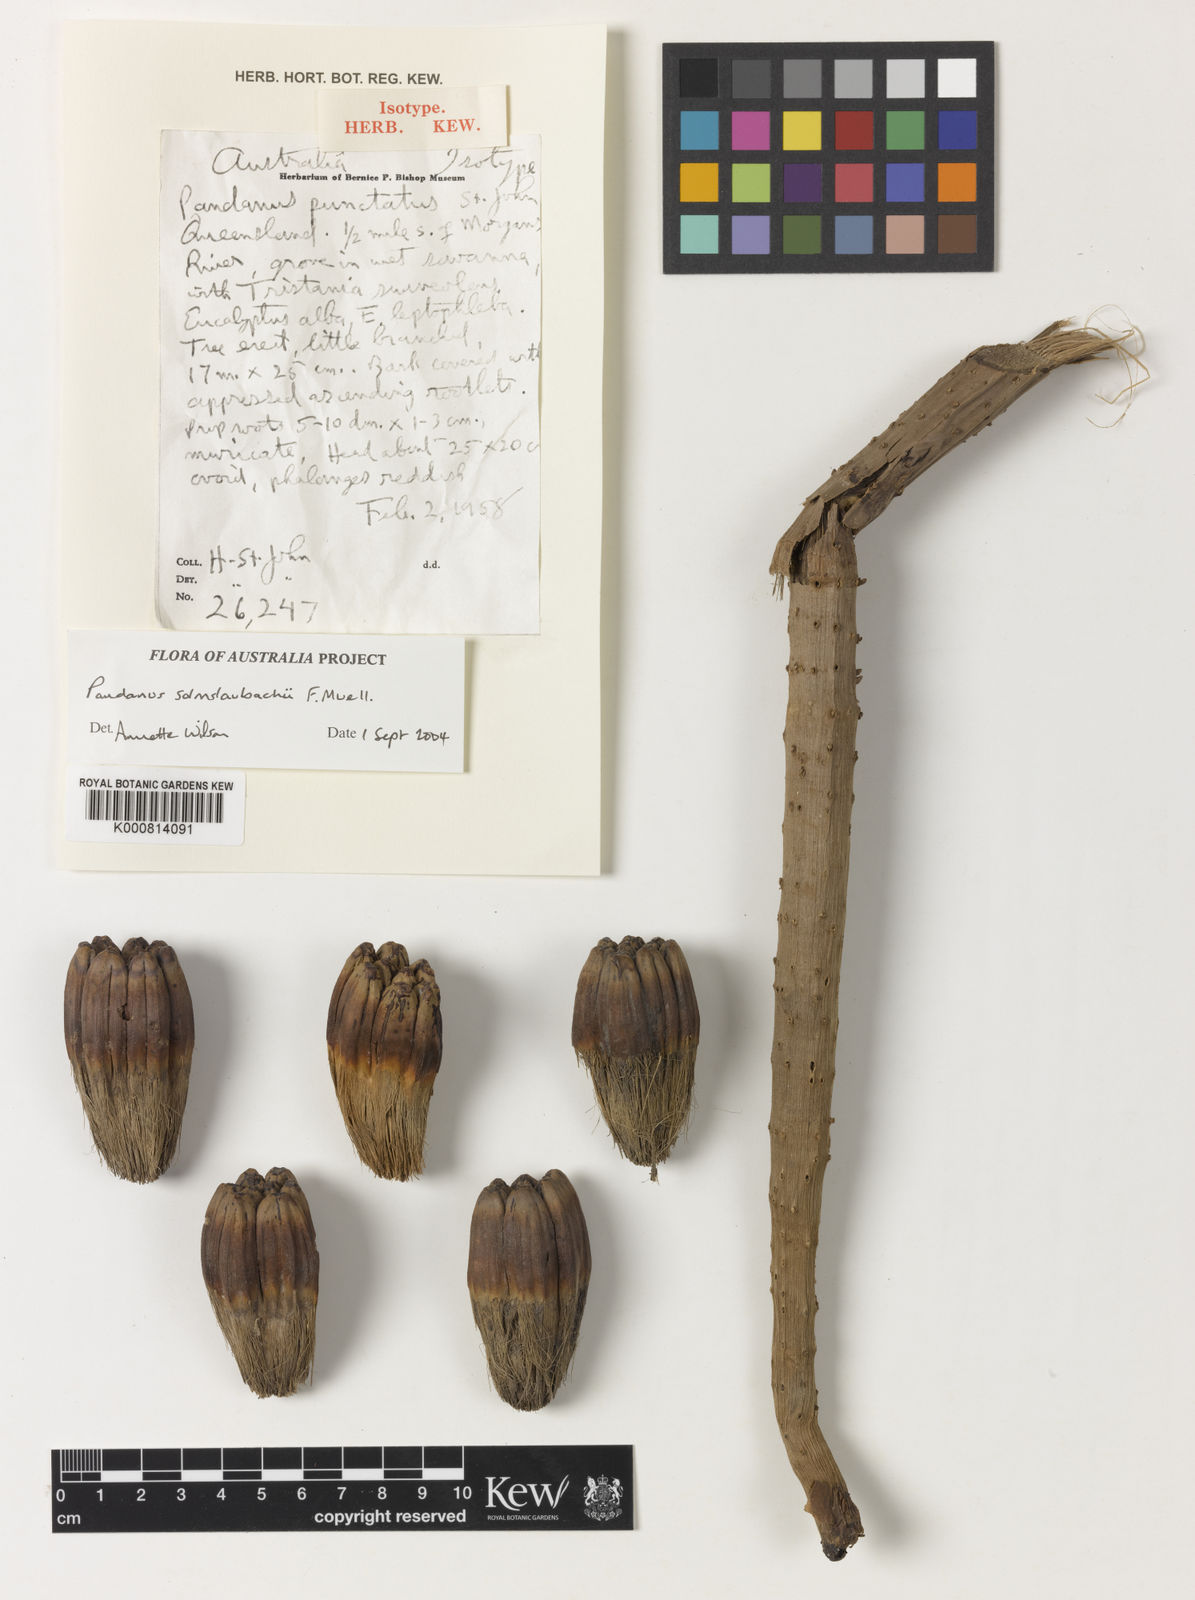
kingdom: Plantae
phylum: Tracheophyta
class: Liliopsida
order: Pandanales
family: Pandanaceae
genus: Pandanus
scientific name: Pandanus solms-laubachii
